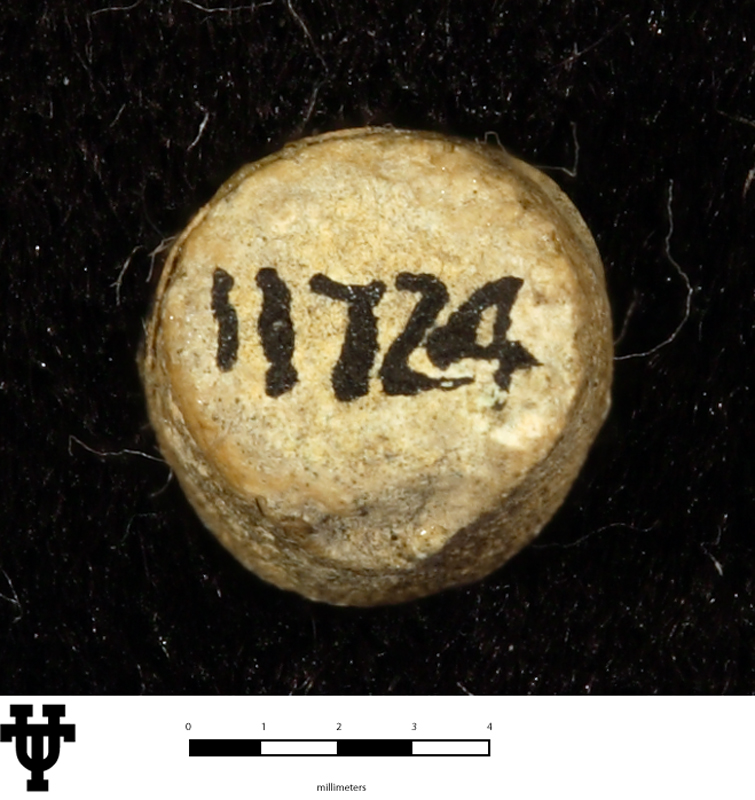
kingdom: Animalia
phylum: Porifera
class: Hexactinellida
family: Celyphiidae
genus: Girtycoelia
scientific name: Girtycoelia typica
